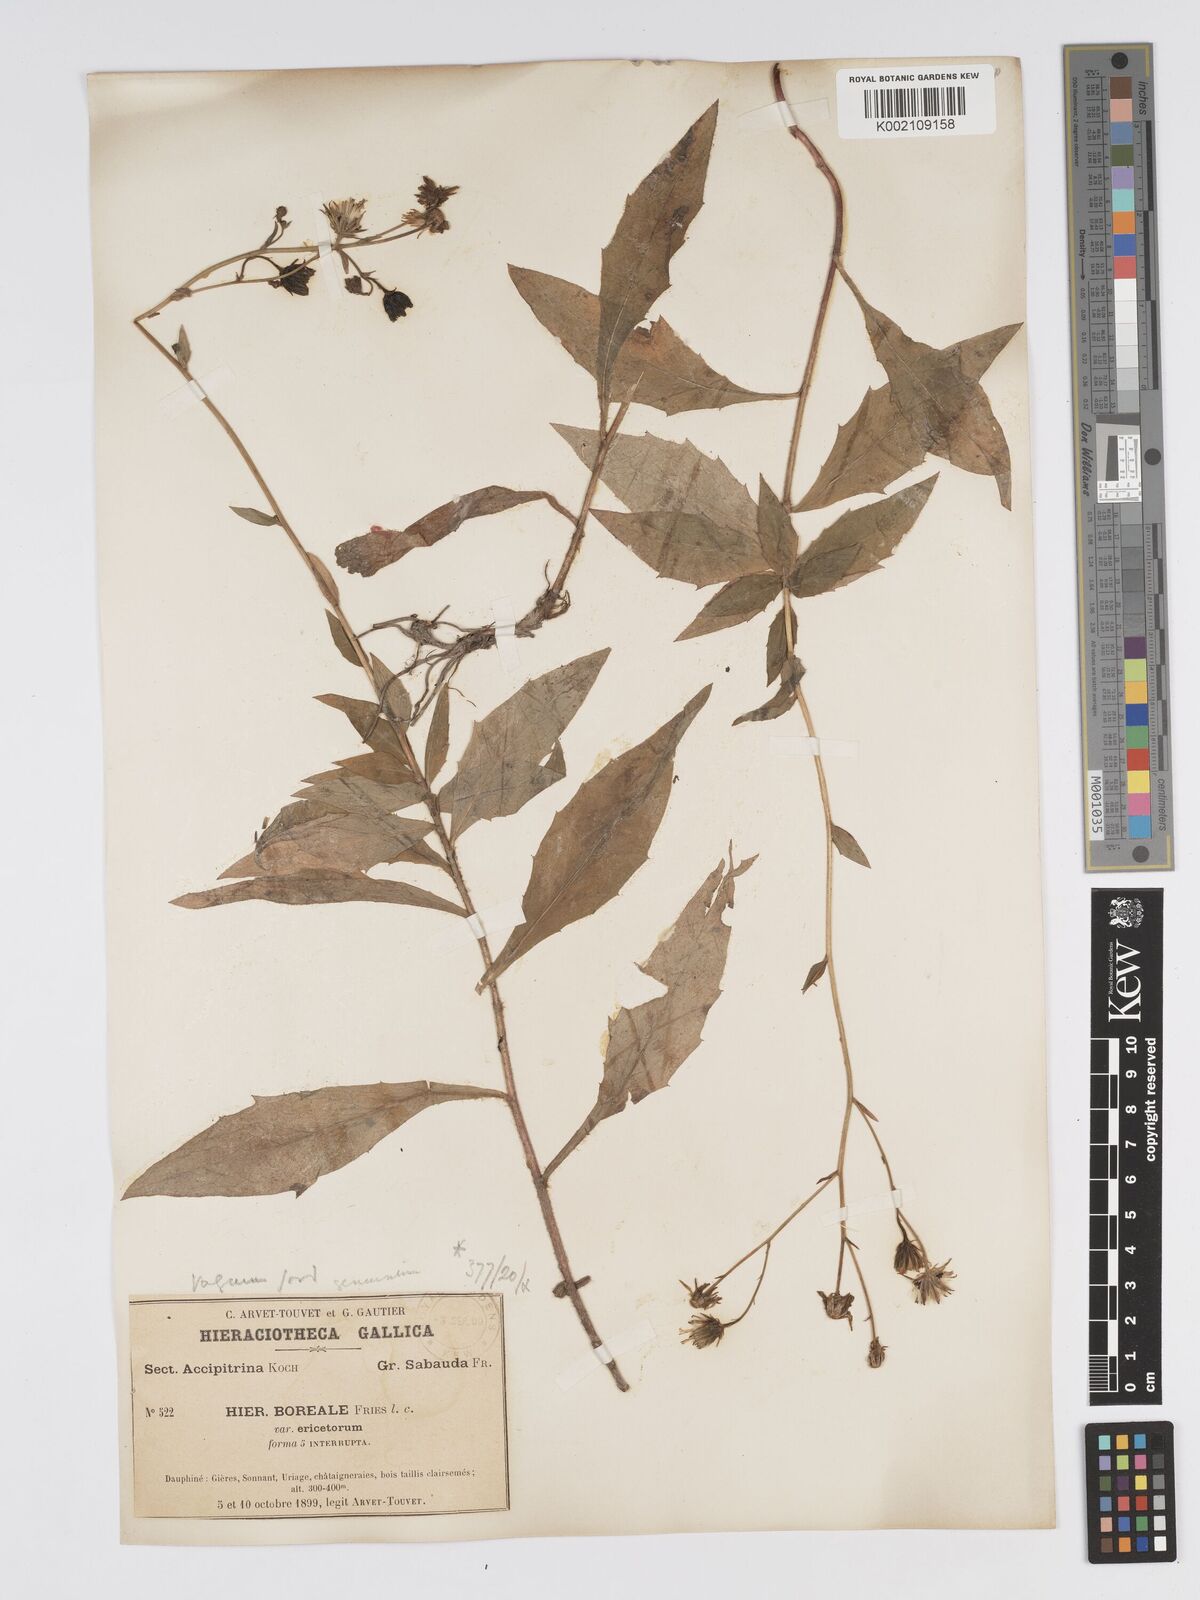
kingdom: Plantae
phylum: Tracheophyta
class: Magnoliopsida
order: Asterales
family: Asteraceae
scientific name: Asteraceae
